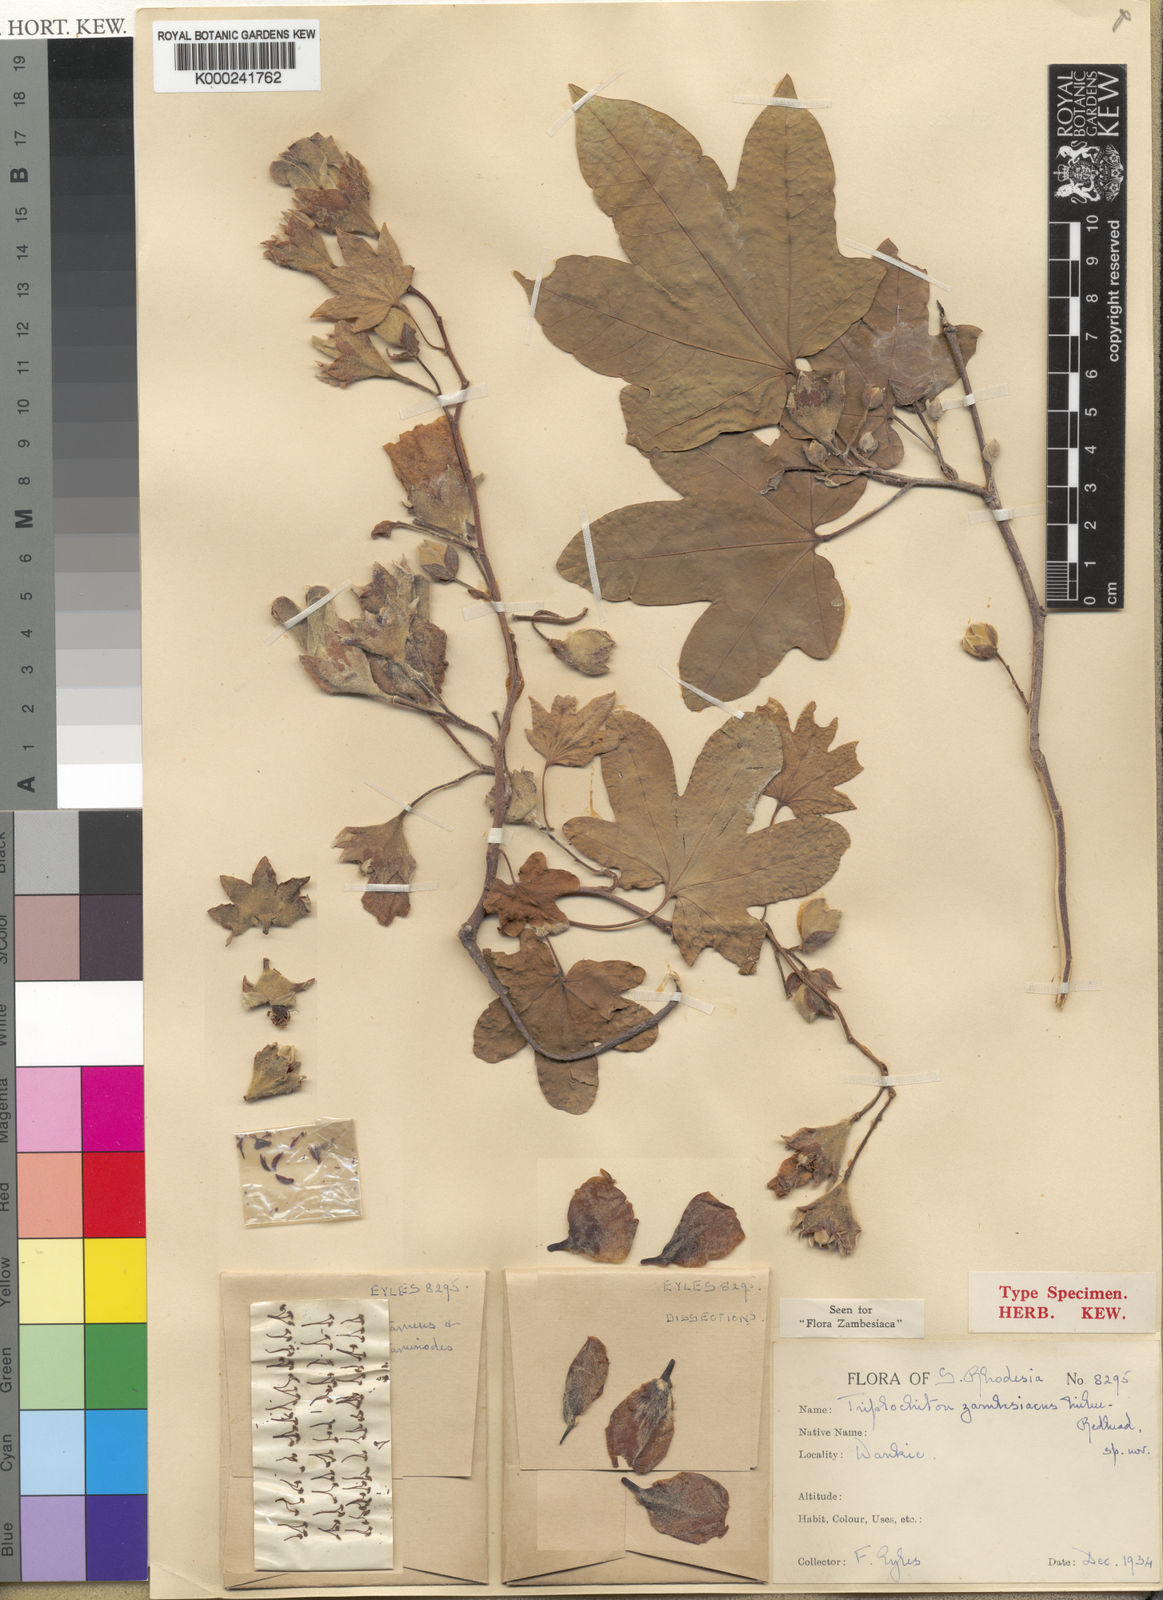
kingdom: Plantae
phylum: Tracheophyta
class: Magnoliopsida
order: Malvales
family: Malvaceae
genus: Triplochiton
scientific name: Triplochiton zambesiacus
